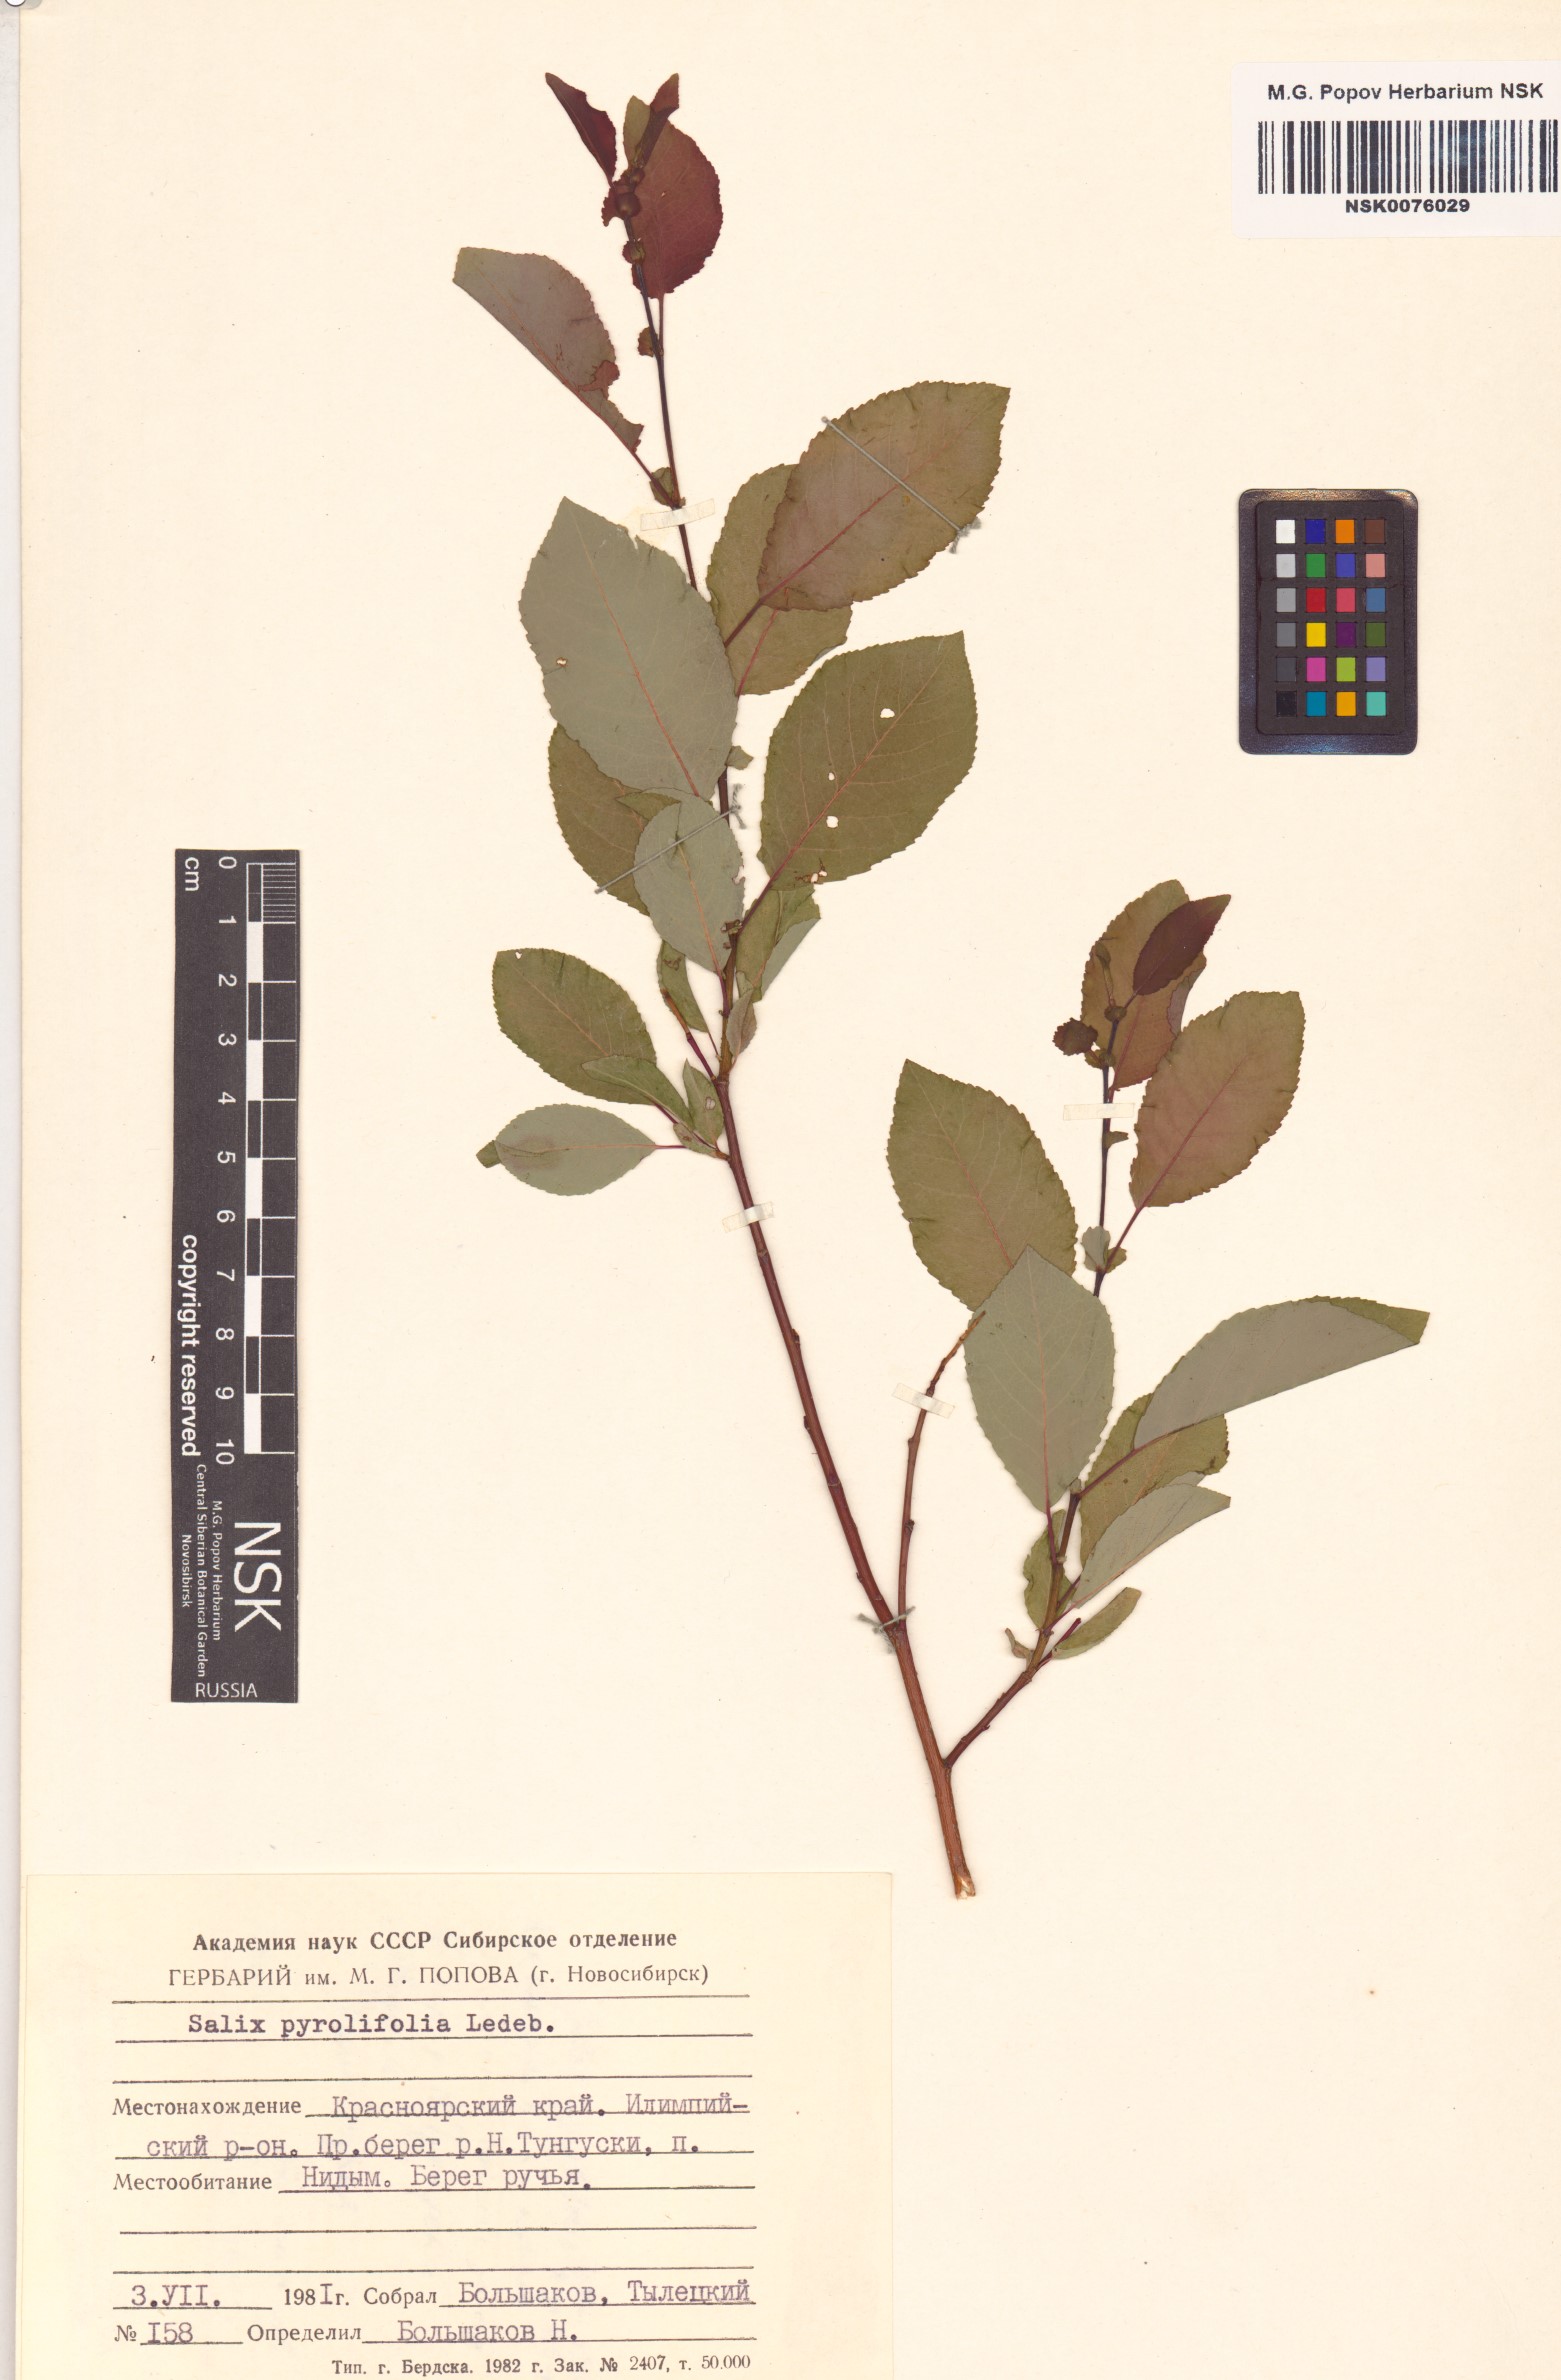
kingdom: Plantae
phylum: Tracheophyta
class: Magnoliopsida
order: Malpighiales
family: Salicaceae
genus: Salix
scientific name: Salix pyrolifolia
